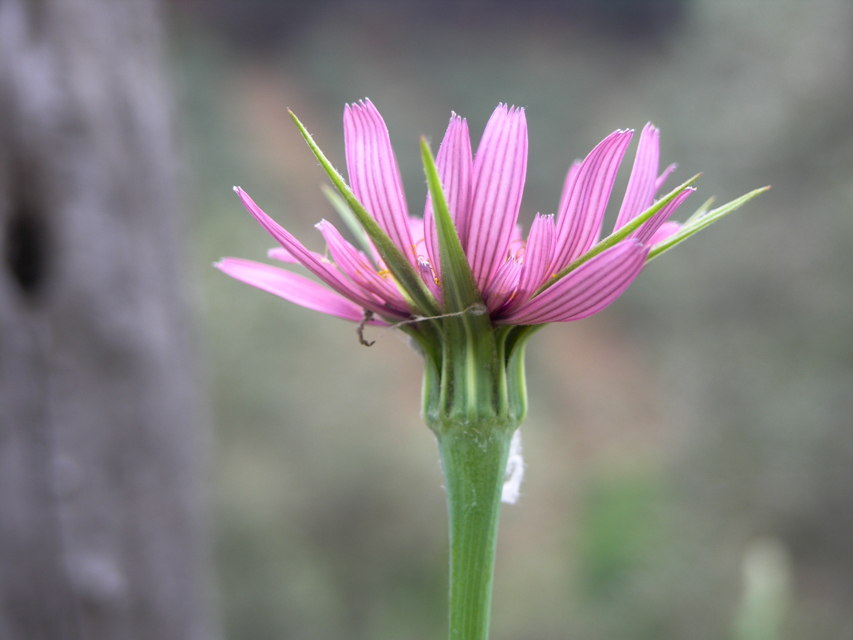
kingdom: Plantae
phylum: Tracheophyta
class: Magnoliopsida
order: Asterales
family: Asteraceae
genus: Tragopogon
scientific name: Tragopogon porrifolius
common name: Salsify
